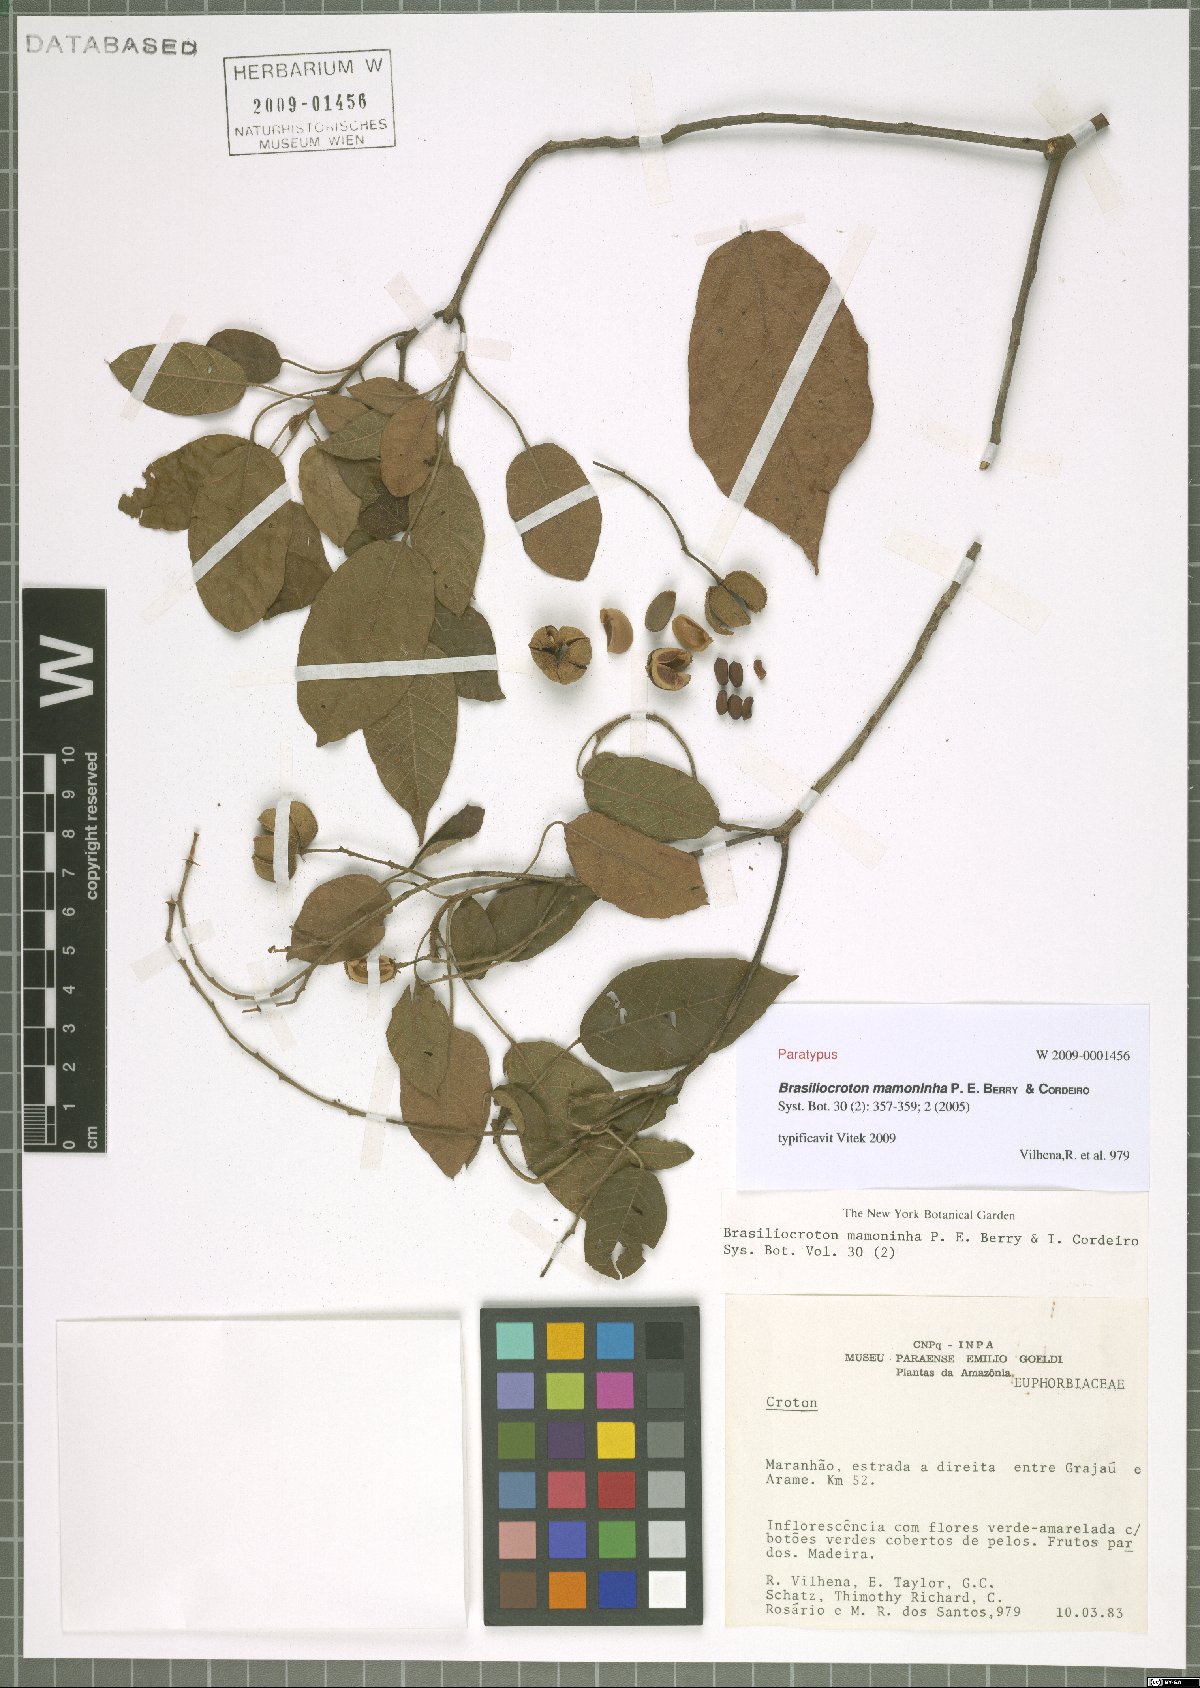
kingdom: Plantae
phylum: Tracheophyta
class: Magnoliopsida
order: Malpighiales
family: Euphorbiaceae
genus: Brasiliocroton
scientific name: Brasiliocroton mamoninha
